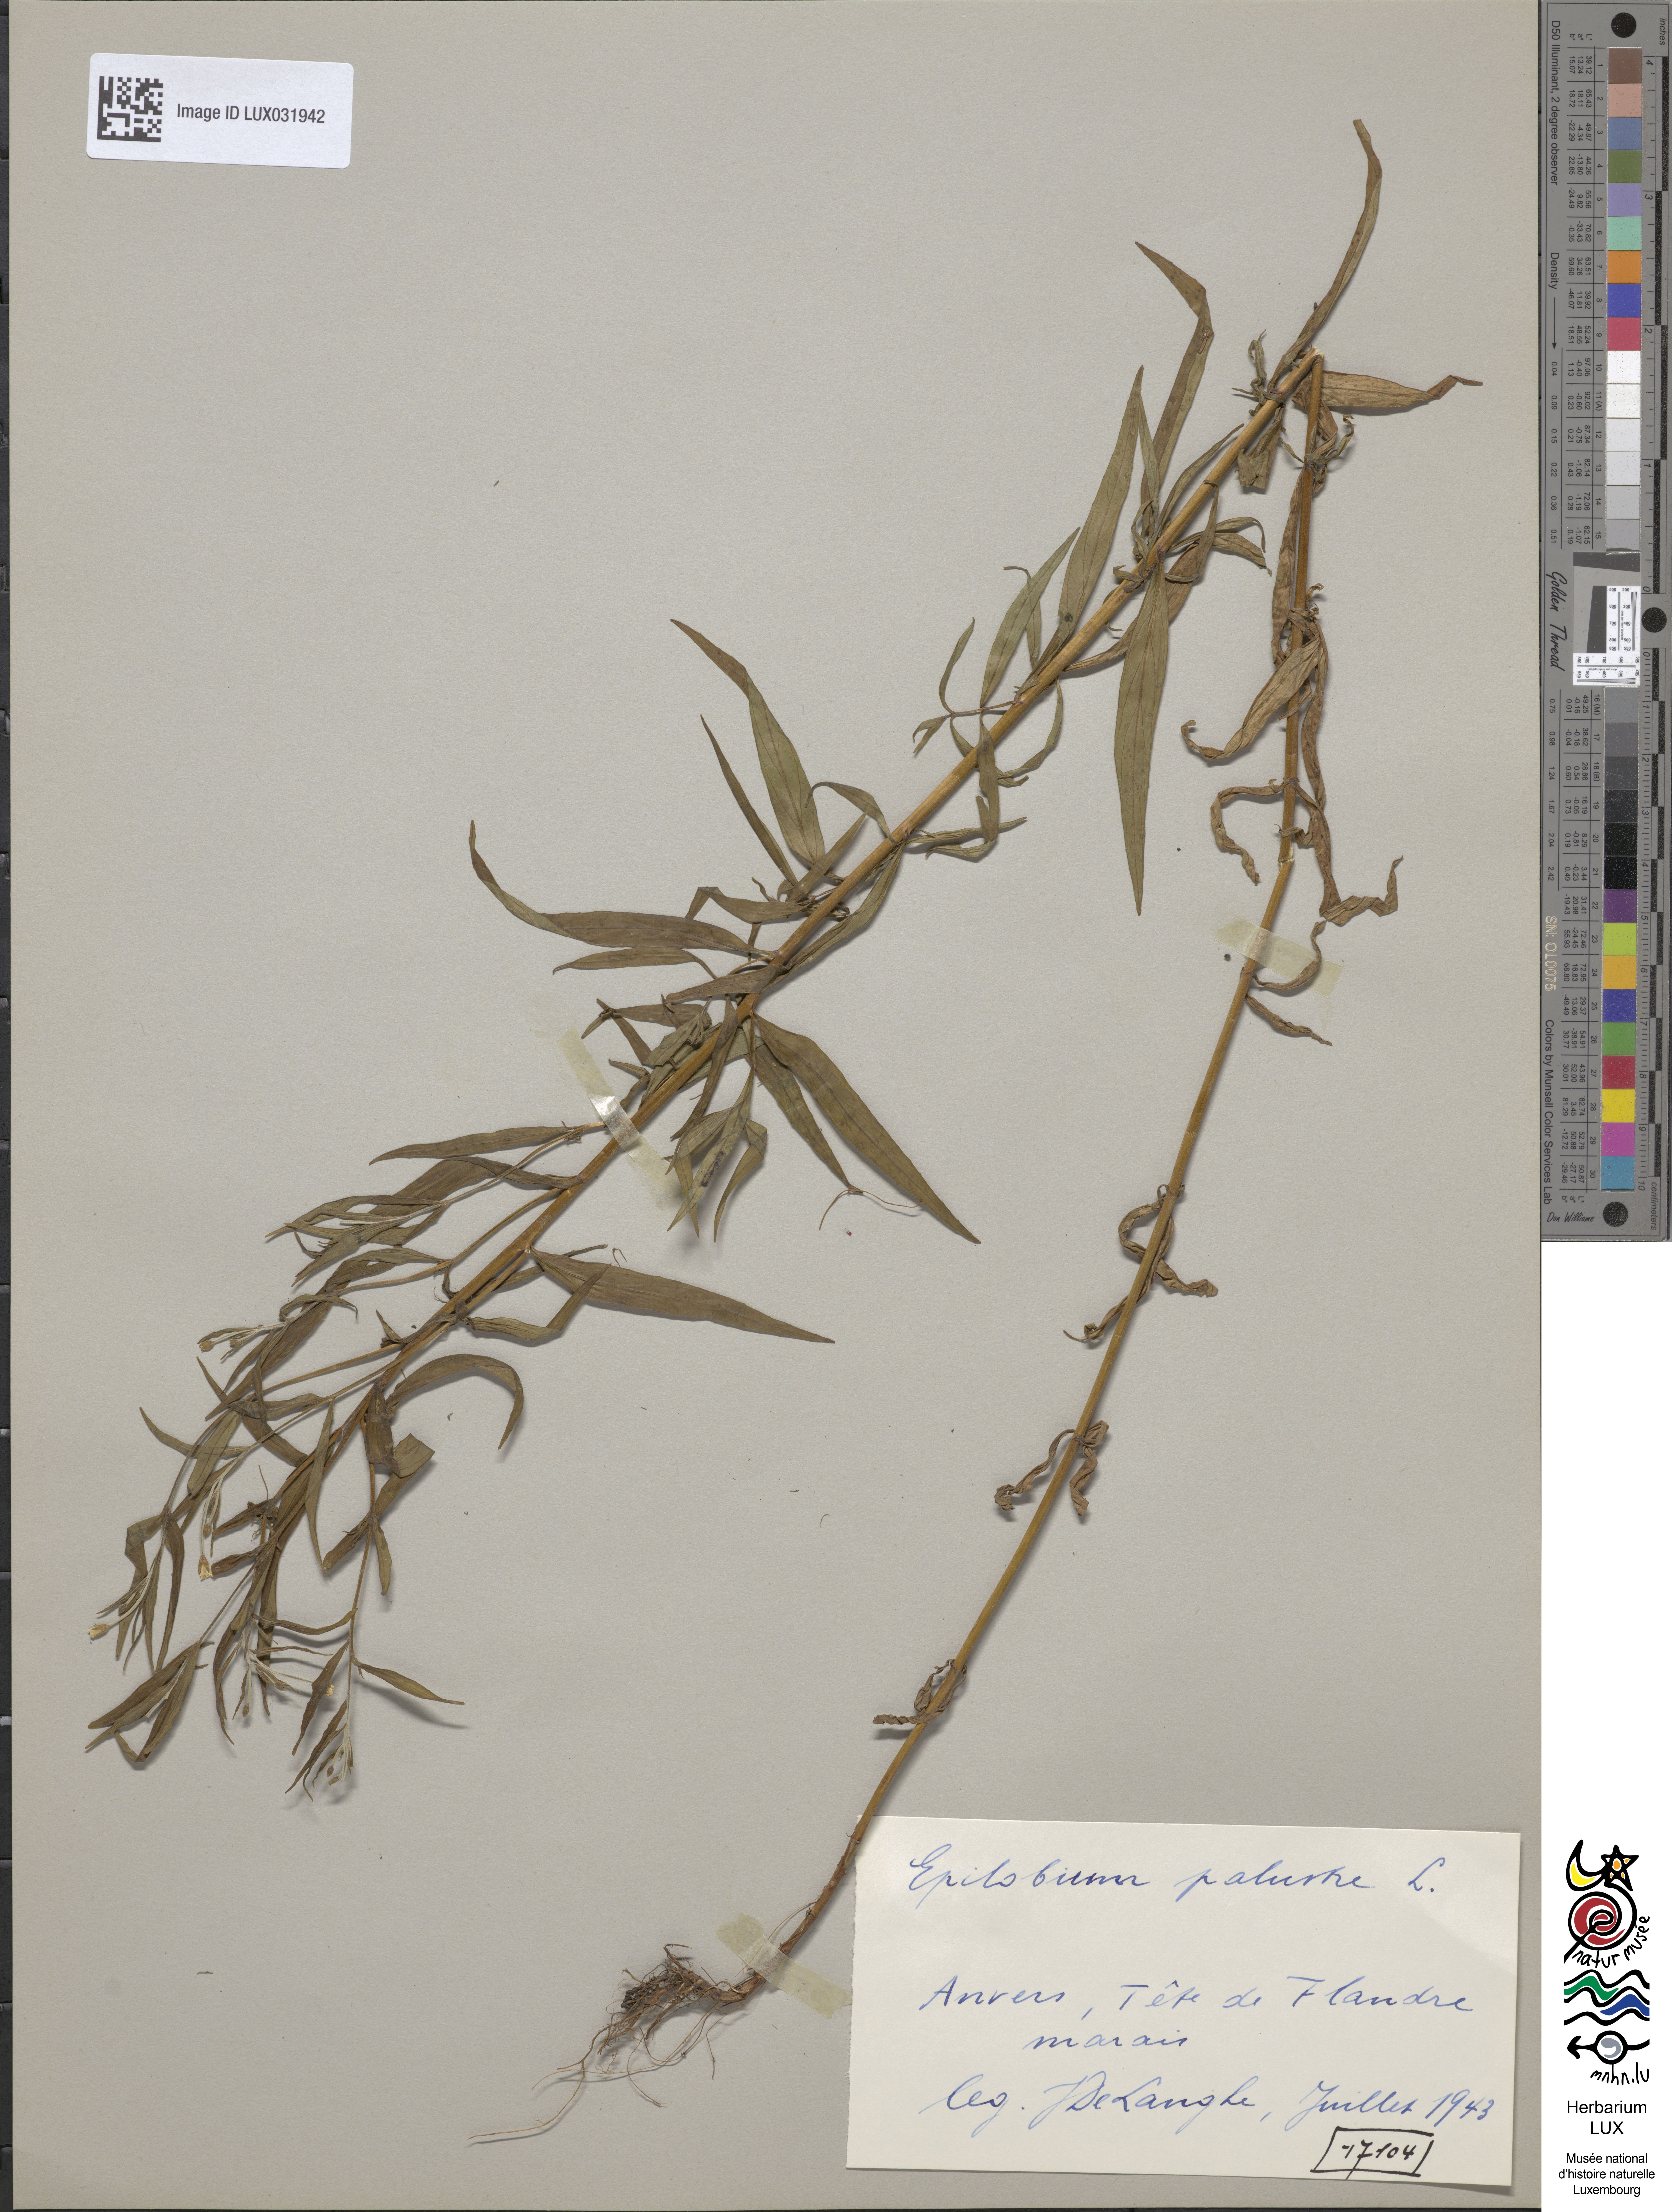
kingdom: Plantae
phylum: Tracheophyta
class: Magnoliopsida
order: Myrtales
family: Onagraceae
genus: Epilobium
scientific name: Epilobium palustre
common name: Marsh willowherb
